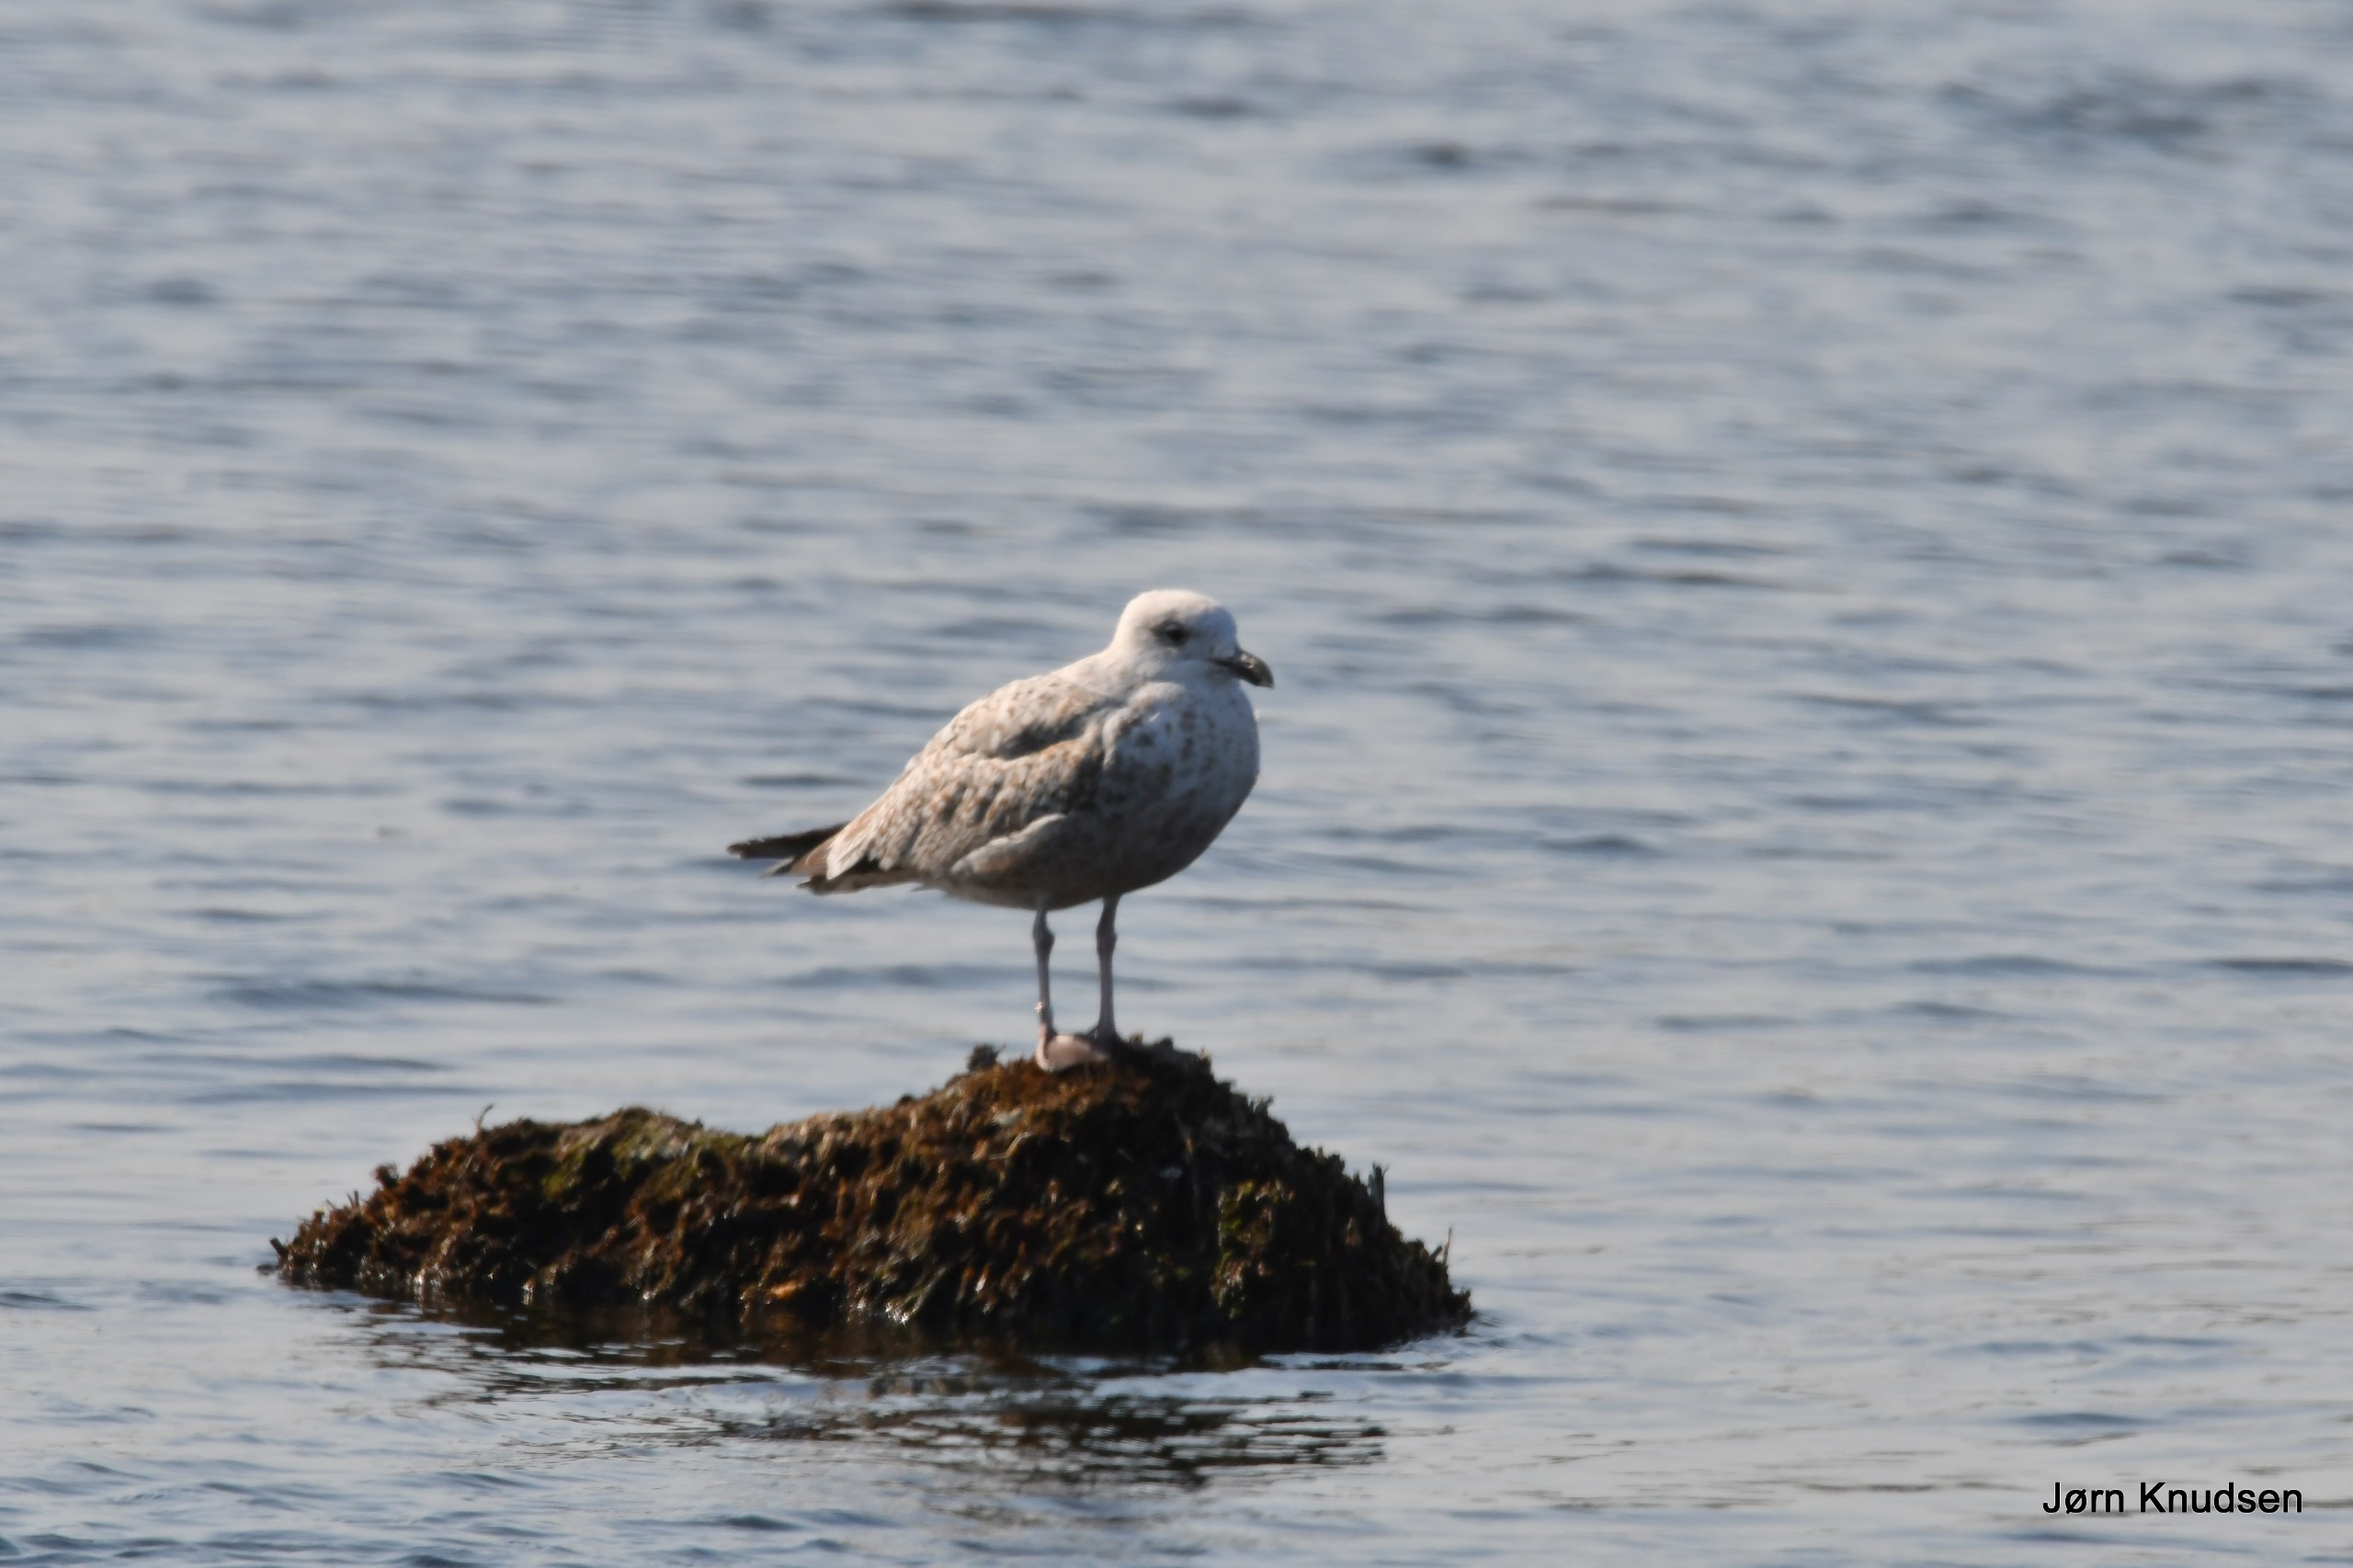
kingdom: Animalia
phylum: Chordata
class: Aves
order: Charadriiformes
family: Laridae
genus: Larus
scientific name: Larus argentatus
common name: Sølvmåge
